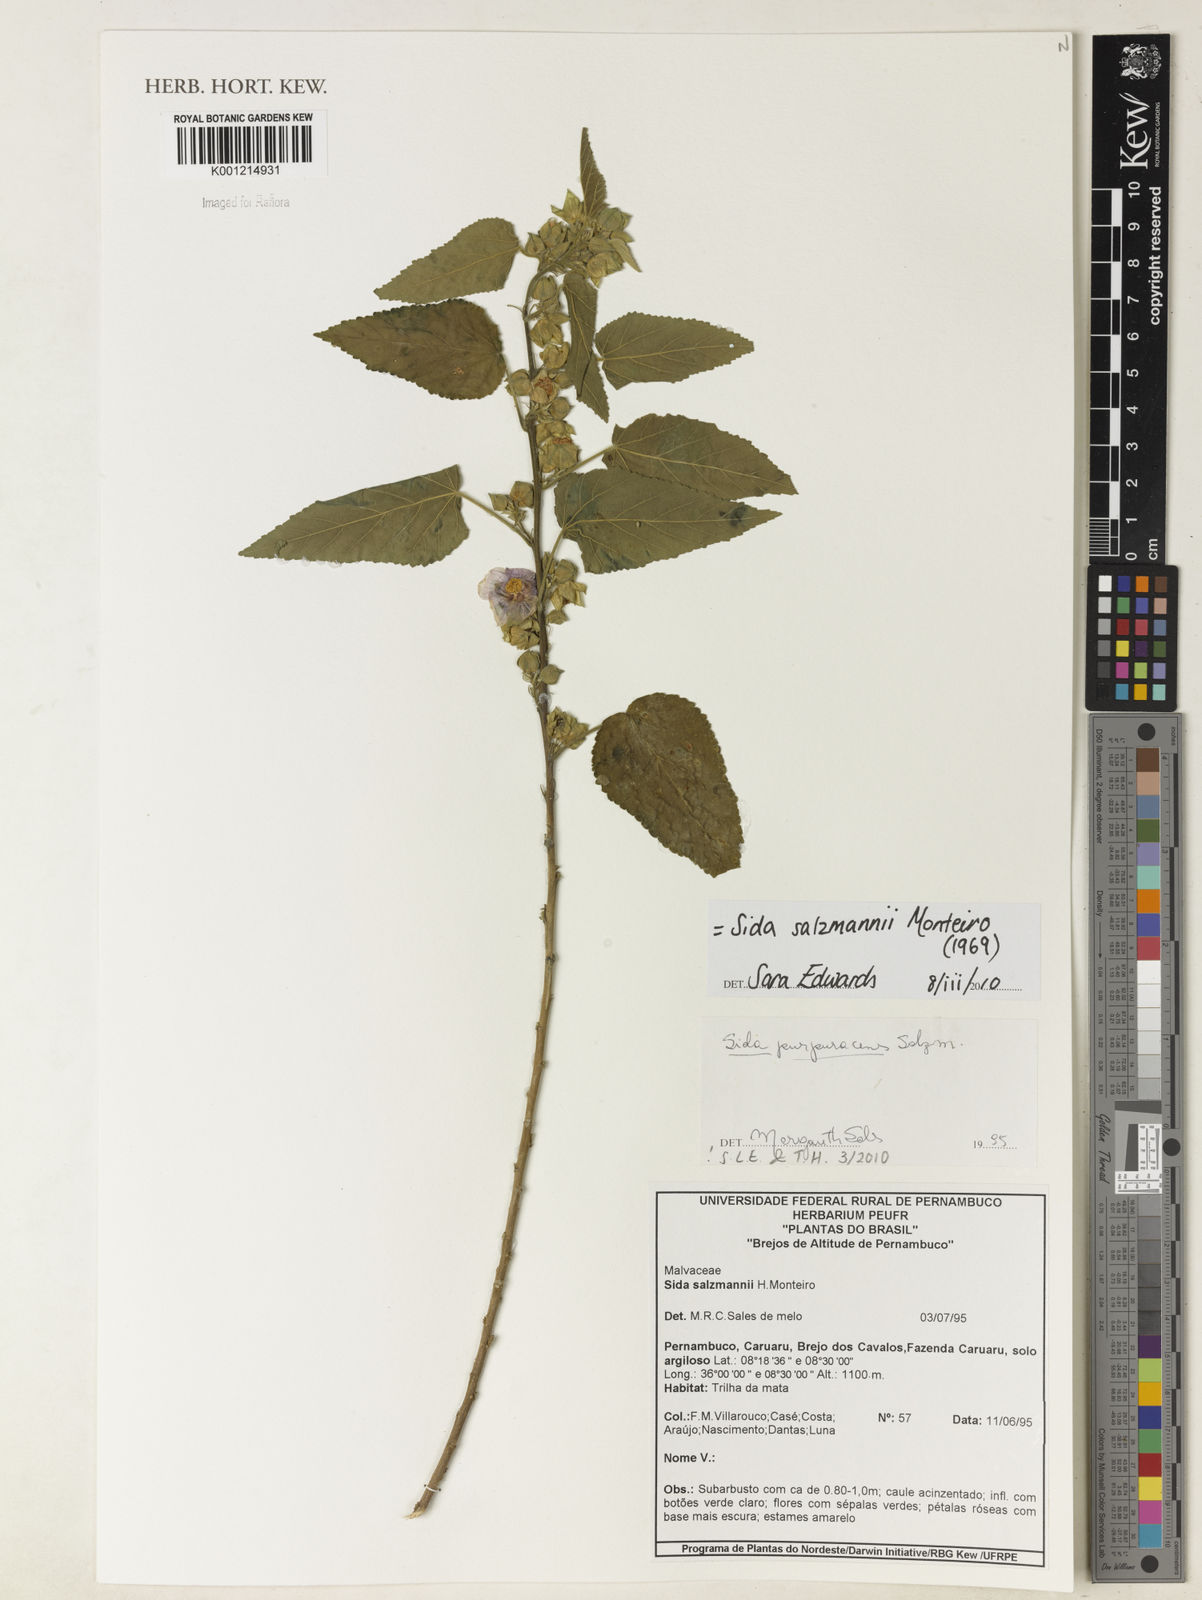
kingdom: Plantae
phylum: Tracheophyta
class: Magnoliopsida
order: Malvales
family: Malvaceae
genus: Sida
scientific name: Sida ulei
